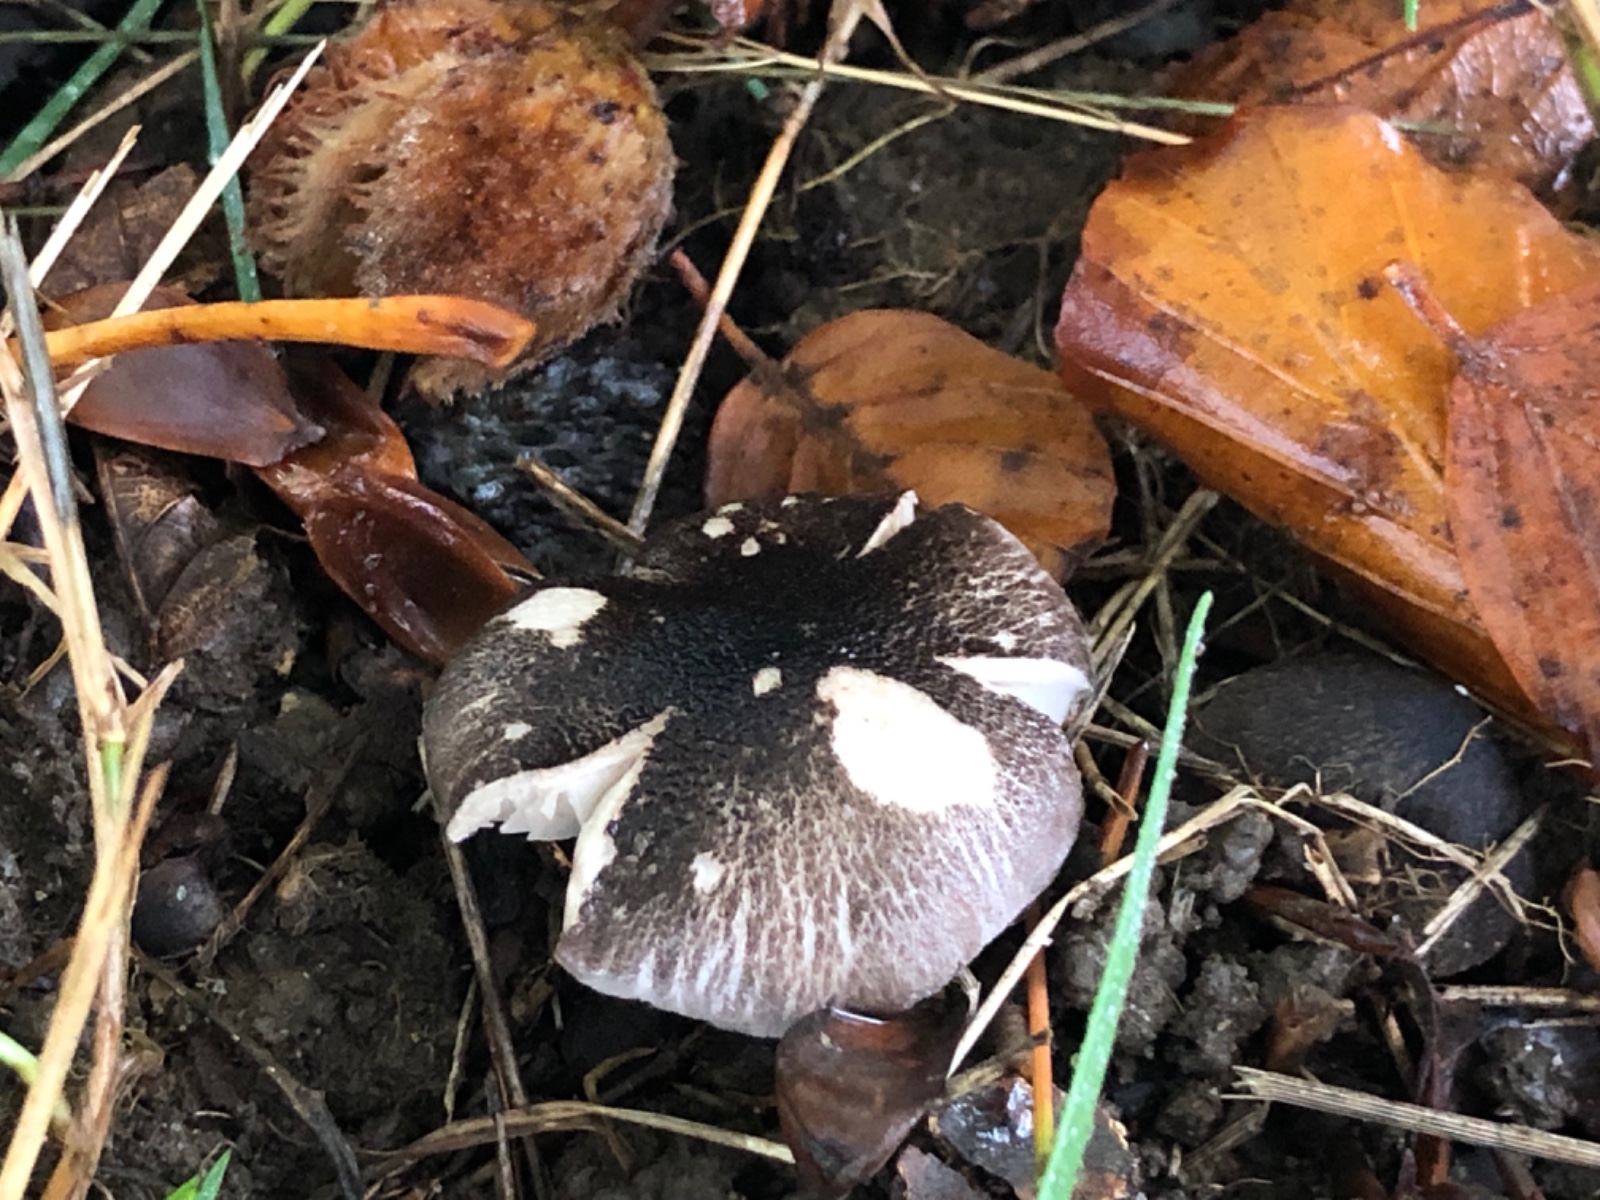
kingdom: Fungi
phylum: Basidiomycota
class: Agaricomycetes
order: Agaricales
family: Tricholomataceae
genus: Tricholoma
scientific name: Tricholoma orirubens
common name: rødbladet ridderhat
